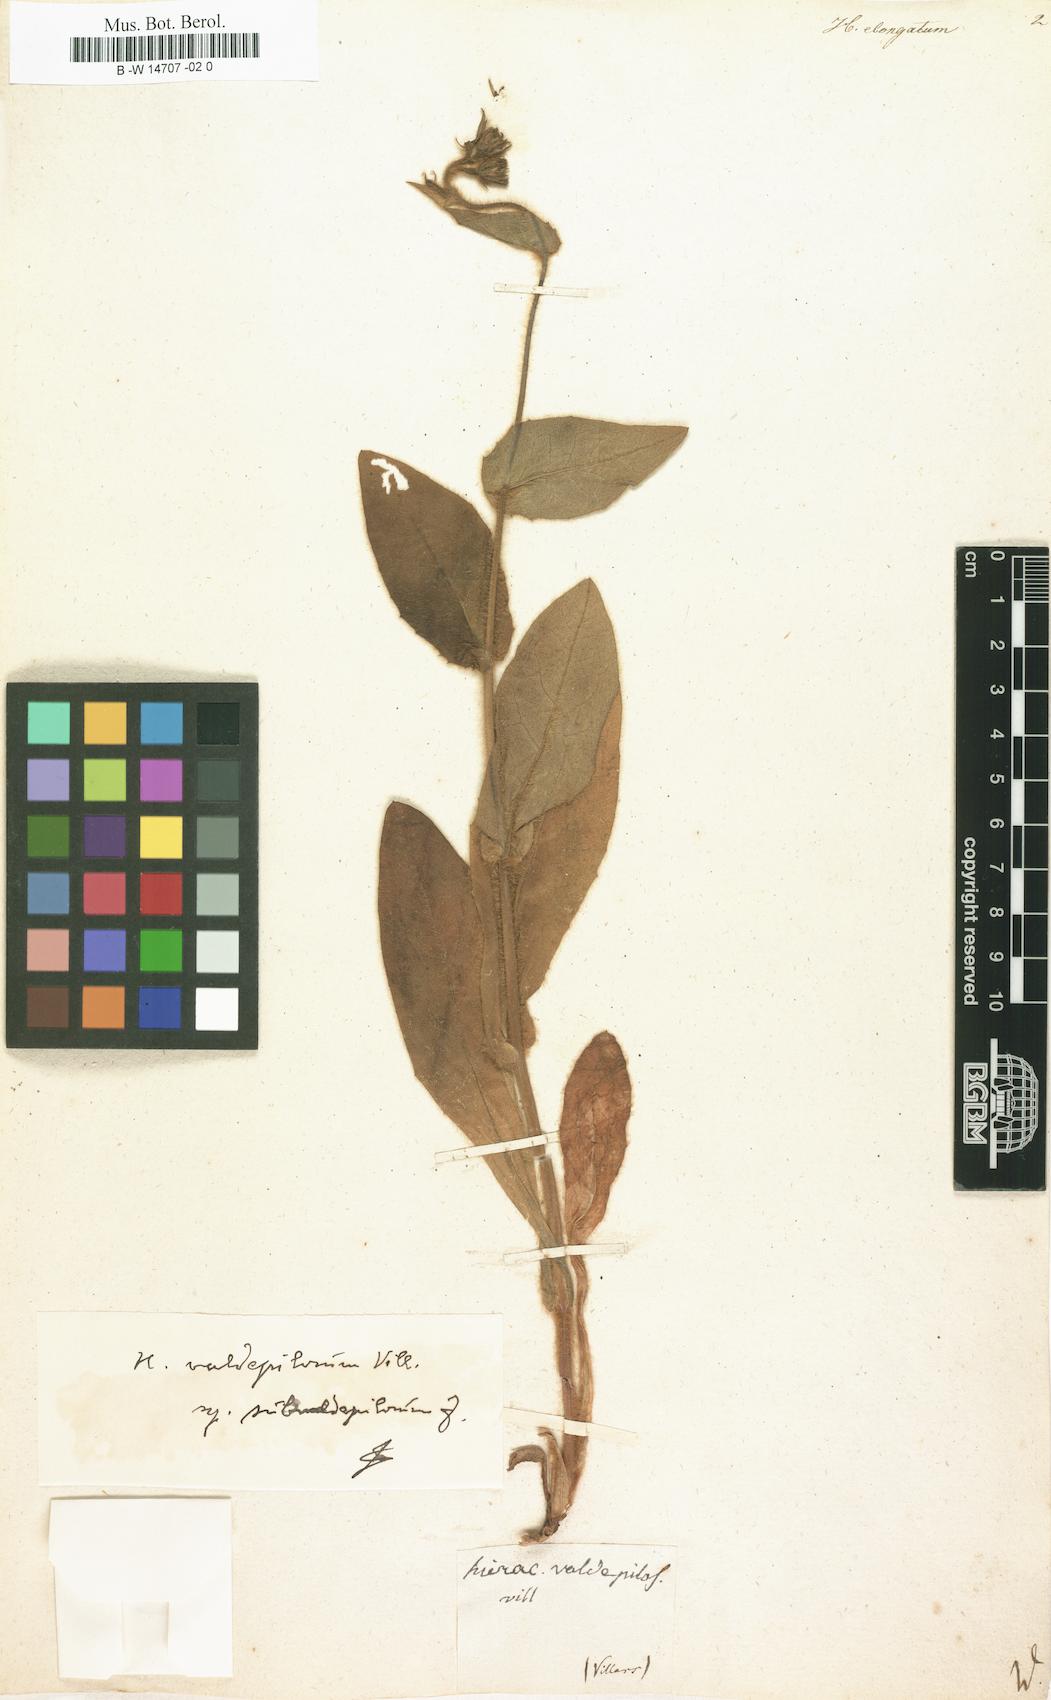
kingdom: Plantae
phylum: Tracheophyta
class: Magnoliopsida
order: Asterales
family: Asteraceae
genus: Hieracium
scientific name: Hieracium valdepilosum
